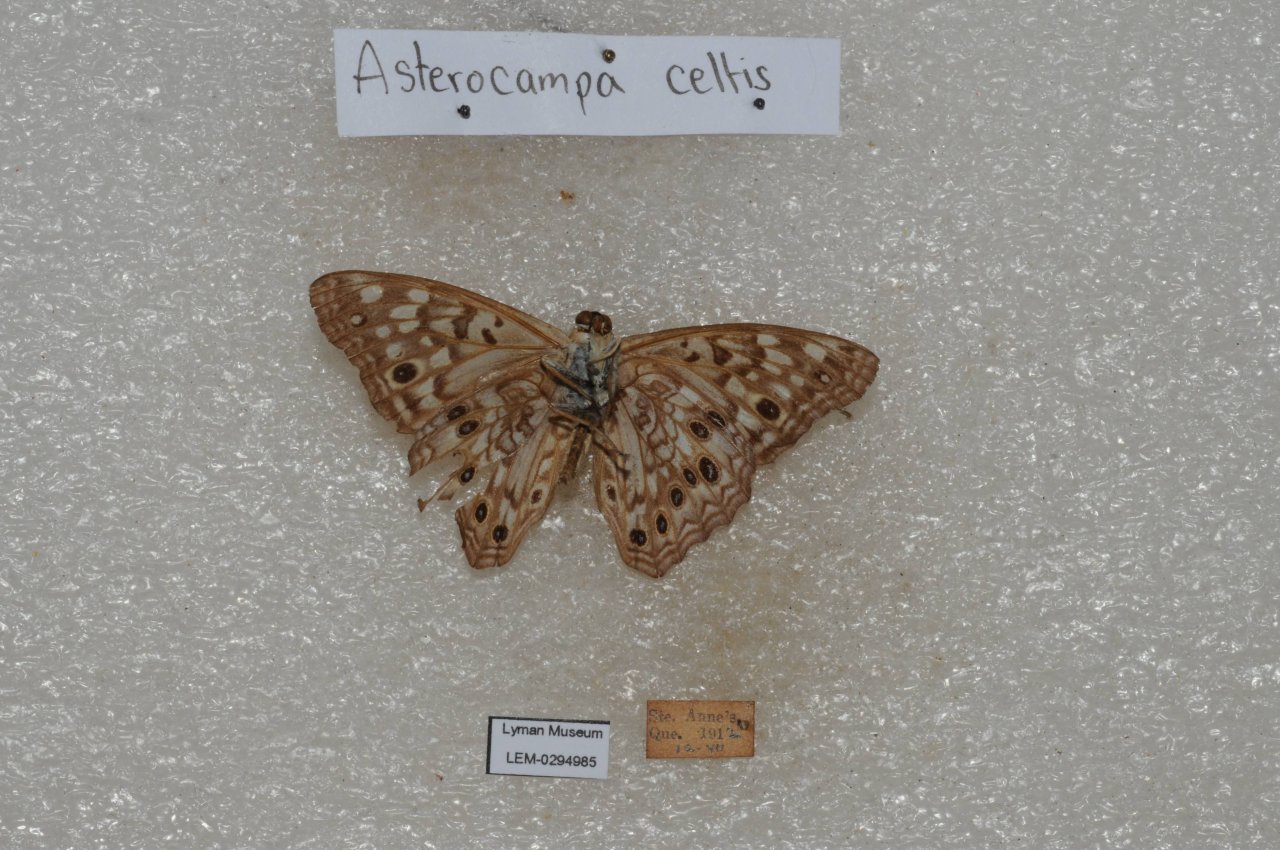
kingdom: Animalia
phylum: Arthropoda
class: Insecta
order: Lepidoptera
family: Nymphalidae
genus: Asterocampa
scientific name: Asterocampa celtis
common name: Hackberry Emperor
